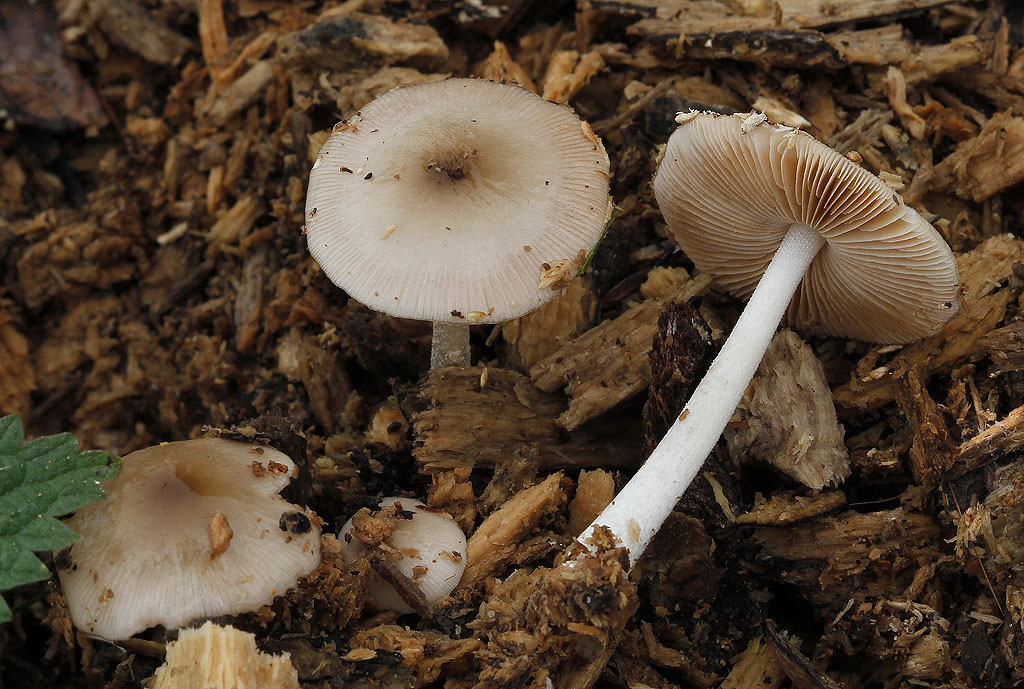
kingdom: Fungi
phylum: Basidiomycota
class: Agaricomycetes
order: Agaricales
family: Bolbitiaceae
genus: Bolbitius
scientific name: Bolbitius reticulatus
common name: Netted fieldcap
